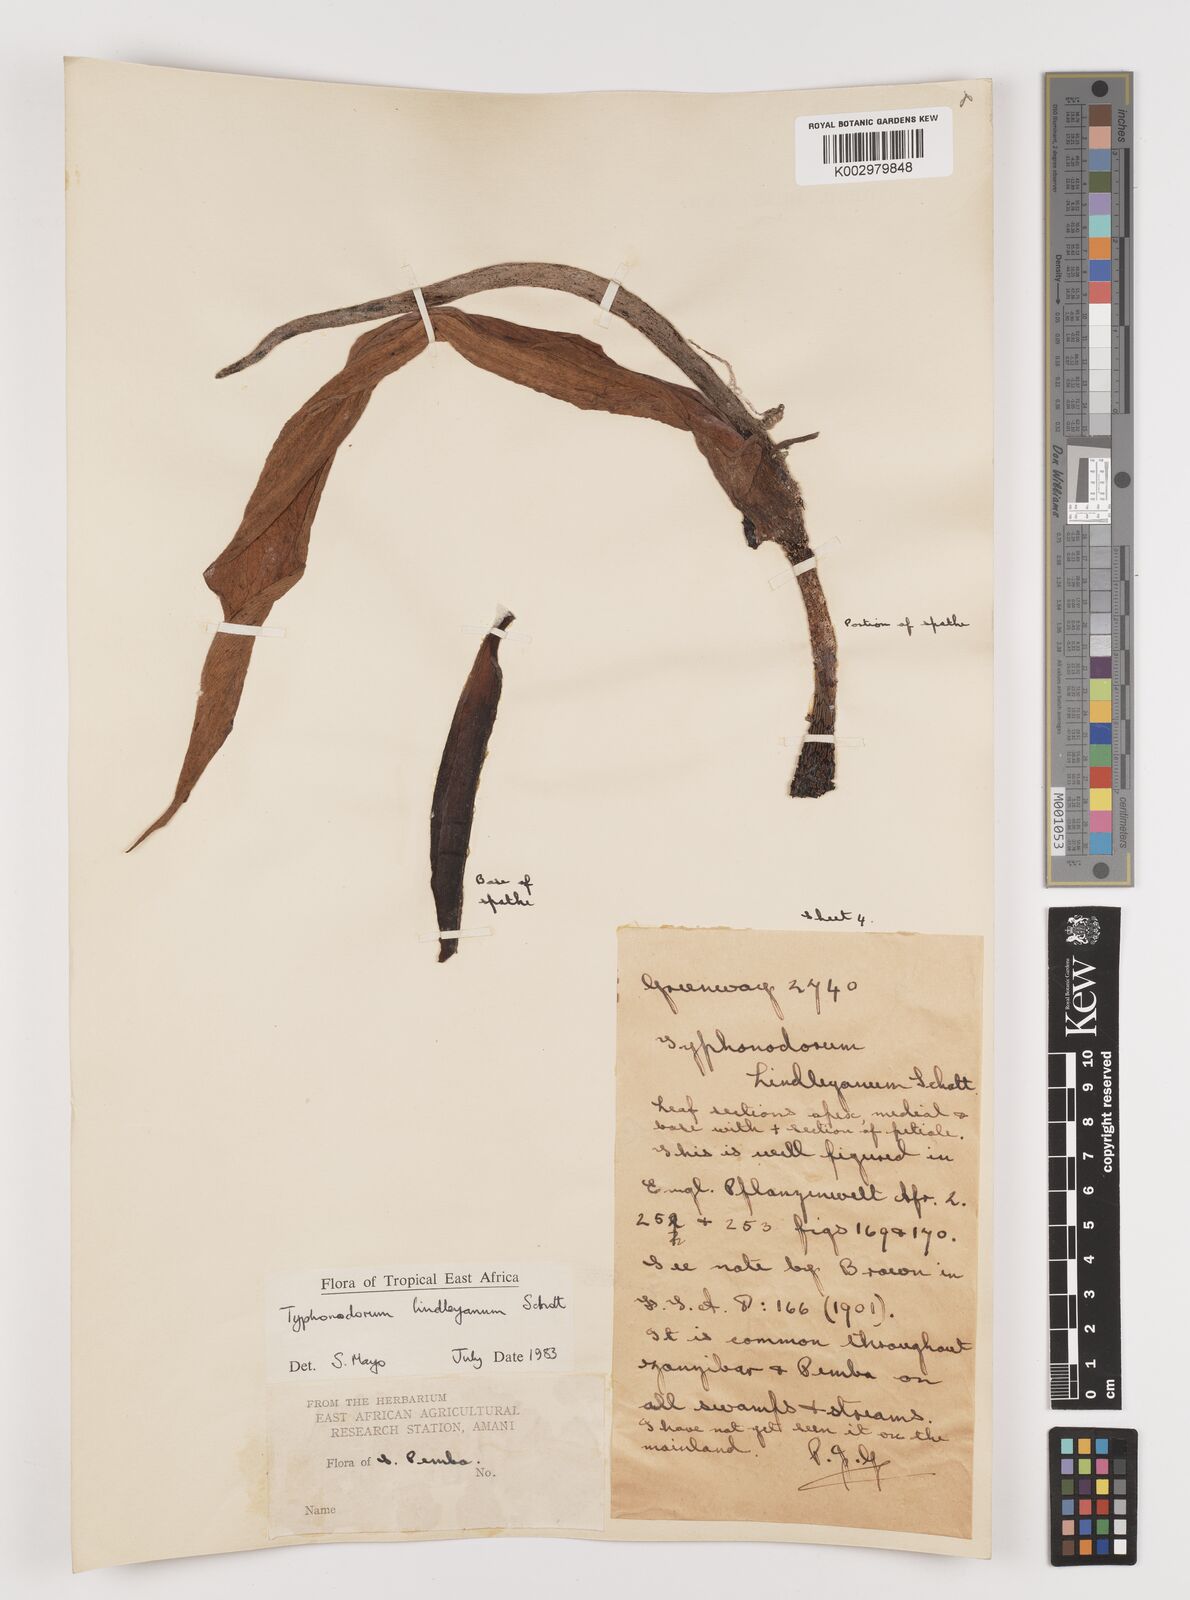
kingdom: Plantae
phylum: Tracheophyta
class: Liliopsida
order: Alismatales
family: Araceae
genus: Typhonodorum
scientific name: Typhonodorum lindleyanum
